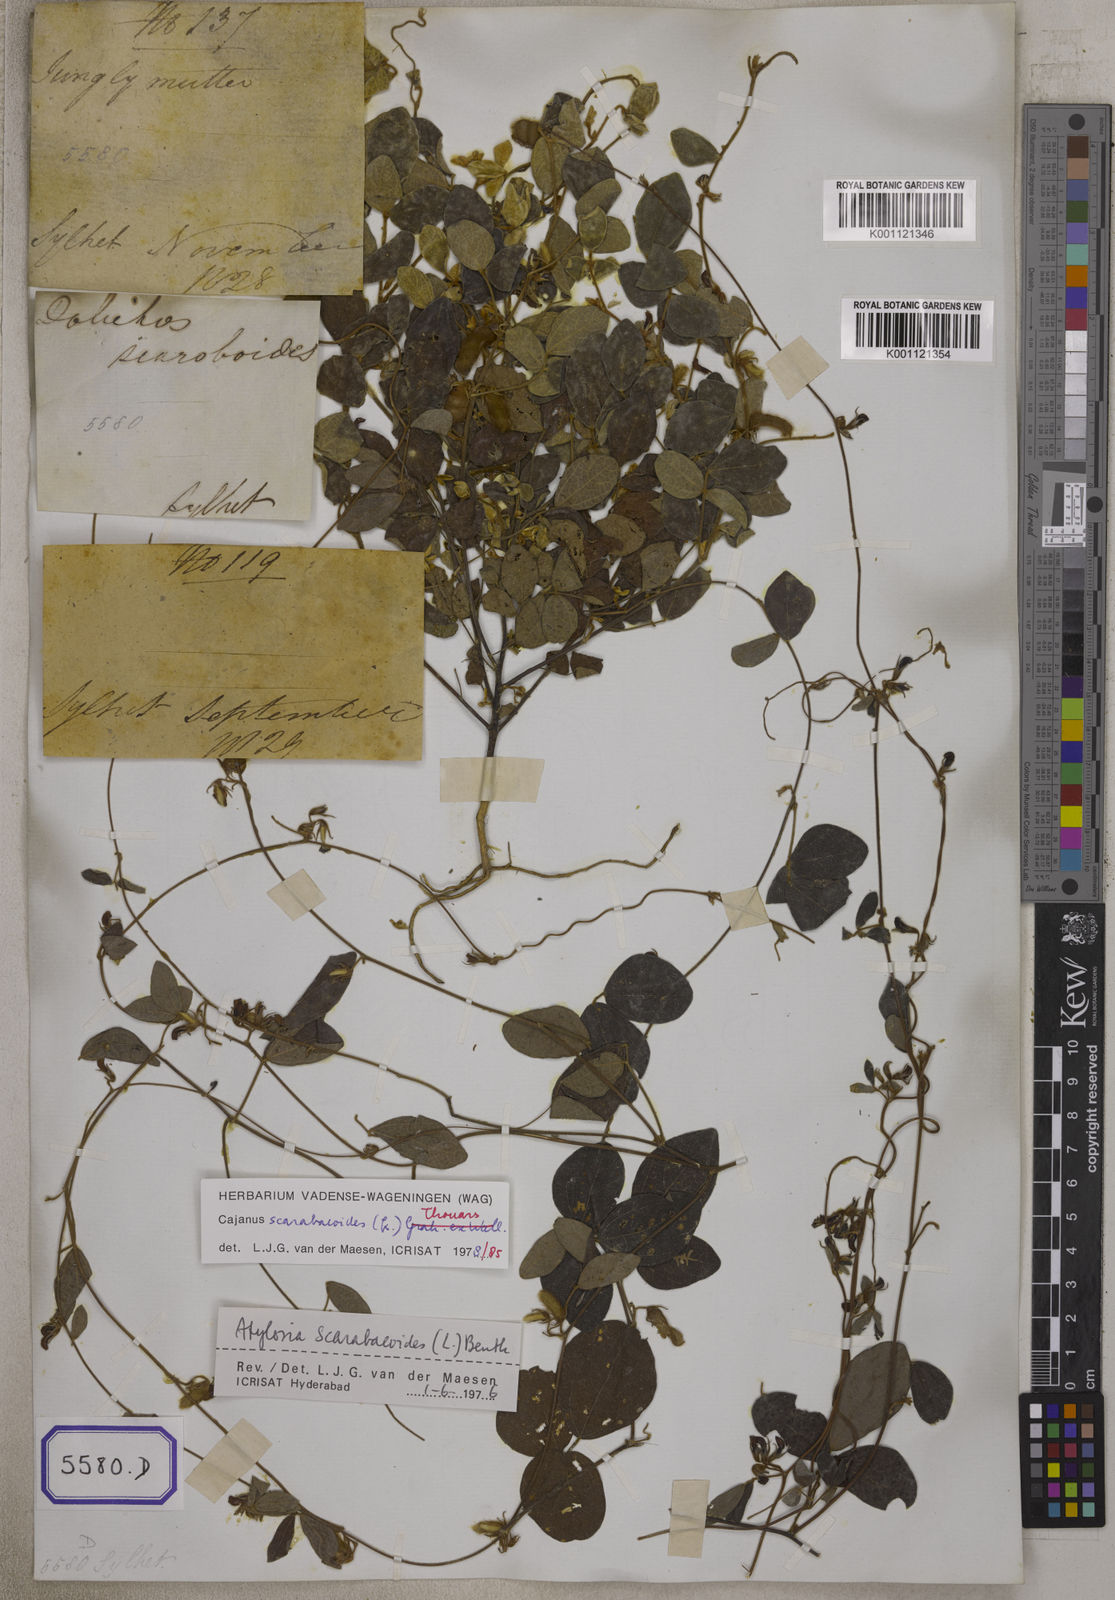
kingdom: Plantae
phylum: Tracheophyta
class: Magnoliopsida
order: Fabales
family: Fabaceae
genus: Cajanus
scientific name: Cajanus scarabaeoides
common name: Showy pigeonpea
